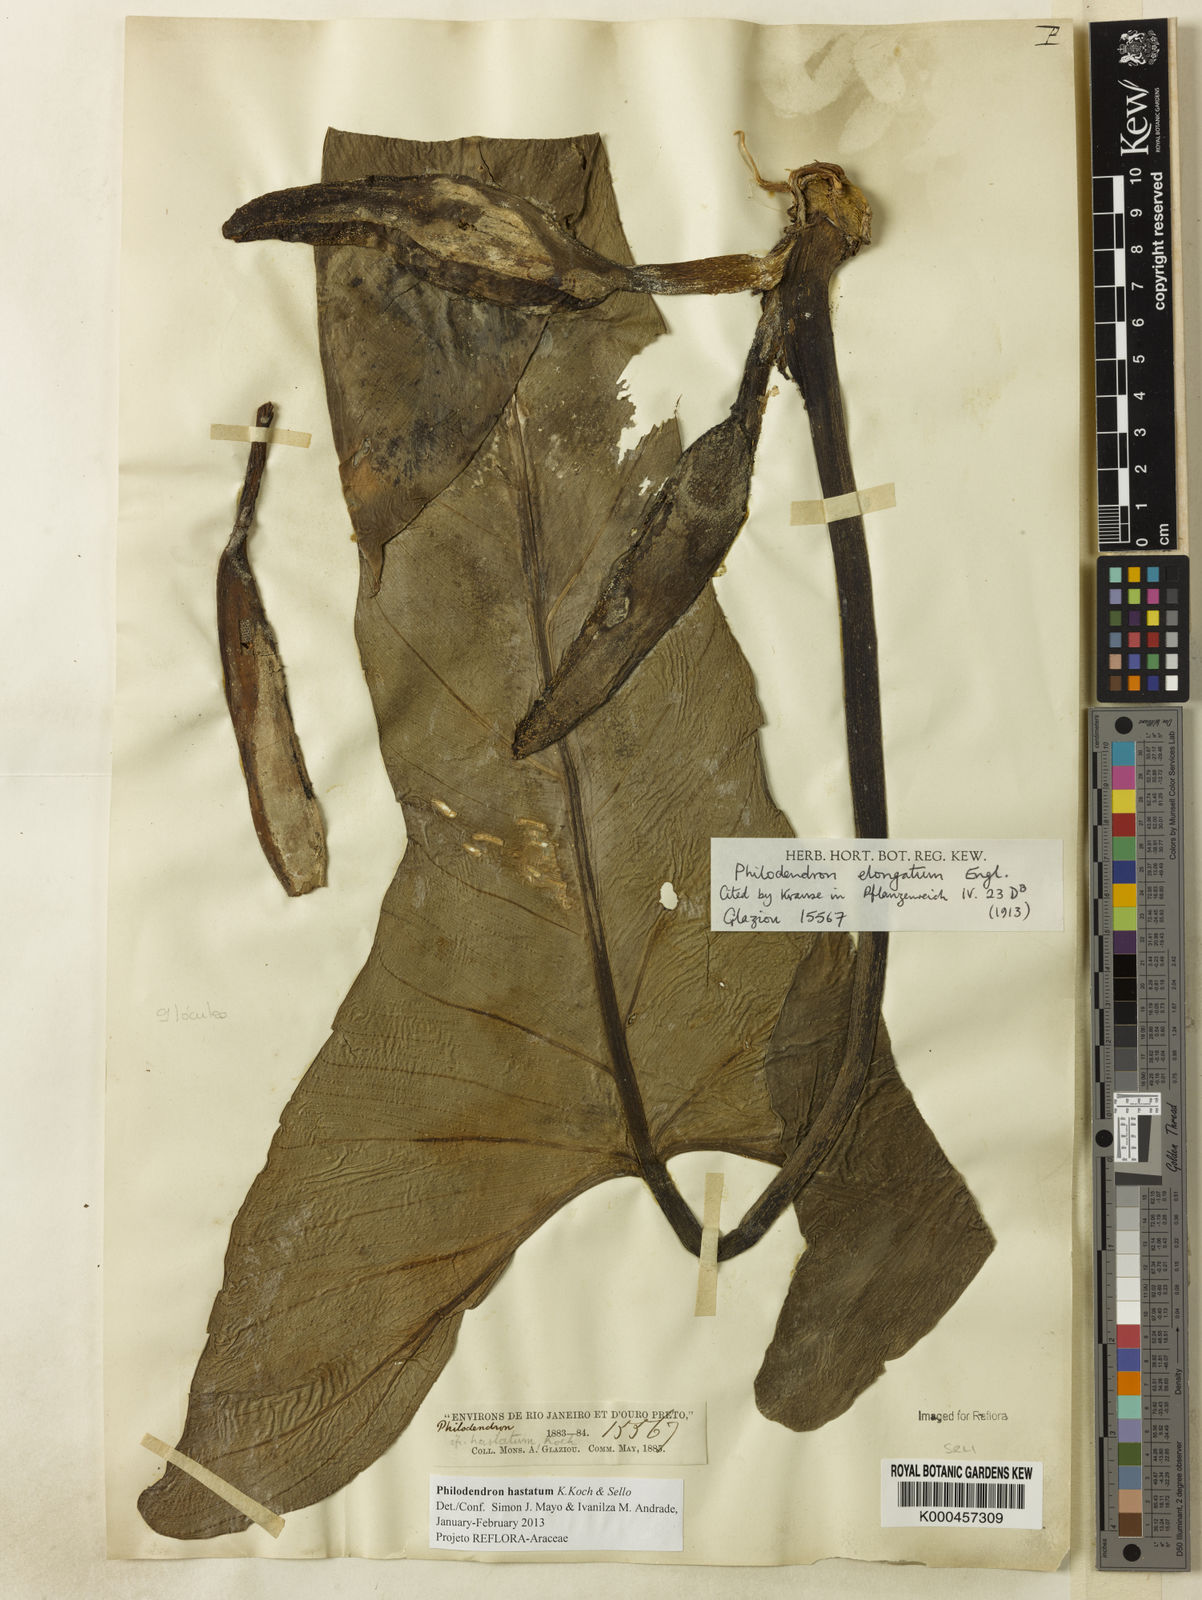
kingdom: Plantae
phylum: Tracheophyta
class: Liliopsida
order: Alismatales
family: Araceae
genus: Philodendron
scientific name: Philodendron hastatum
